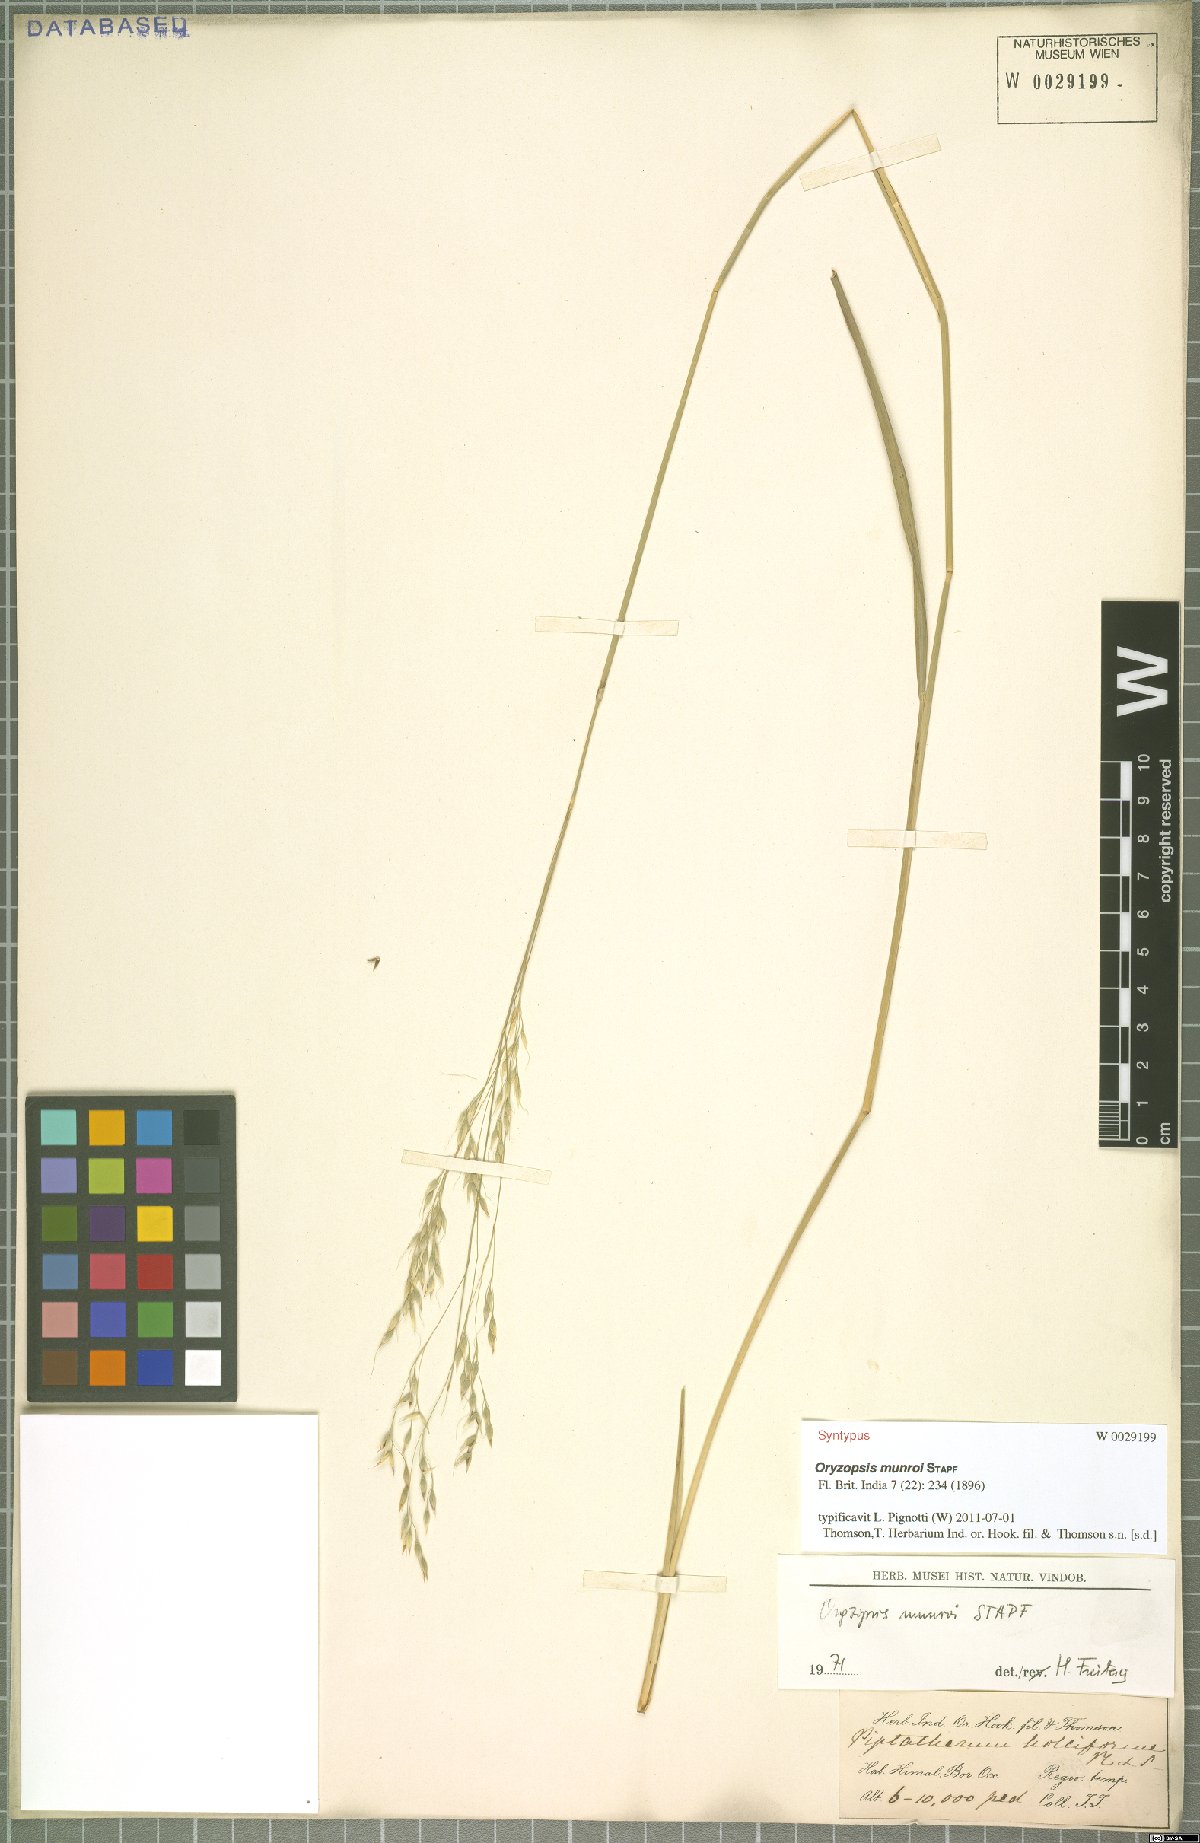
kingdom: Plantae
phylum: Tracheophyta
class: Liliopsida
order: Poales
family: Poaceae
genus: Piptatherum
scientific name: Piptatherum munroi
